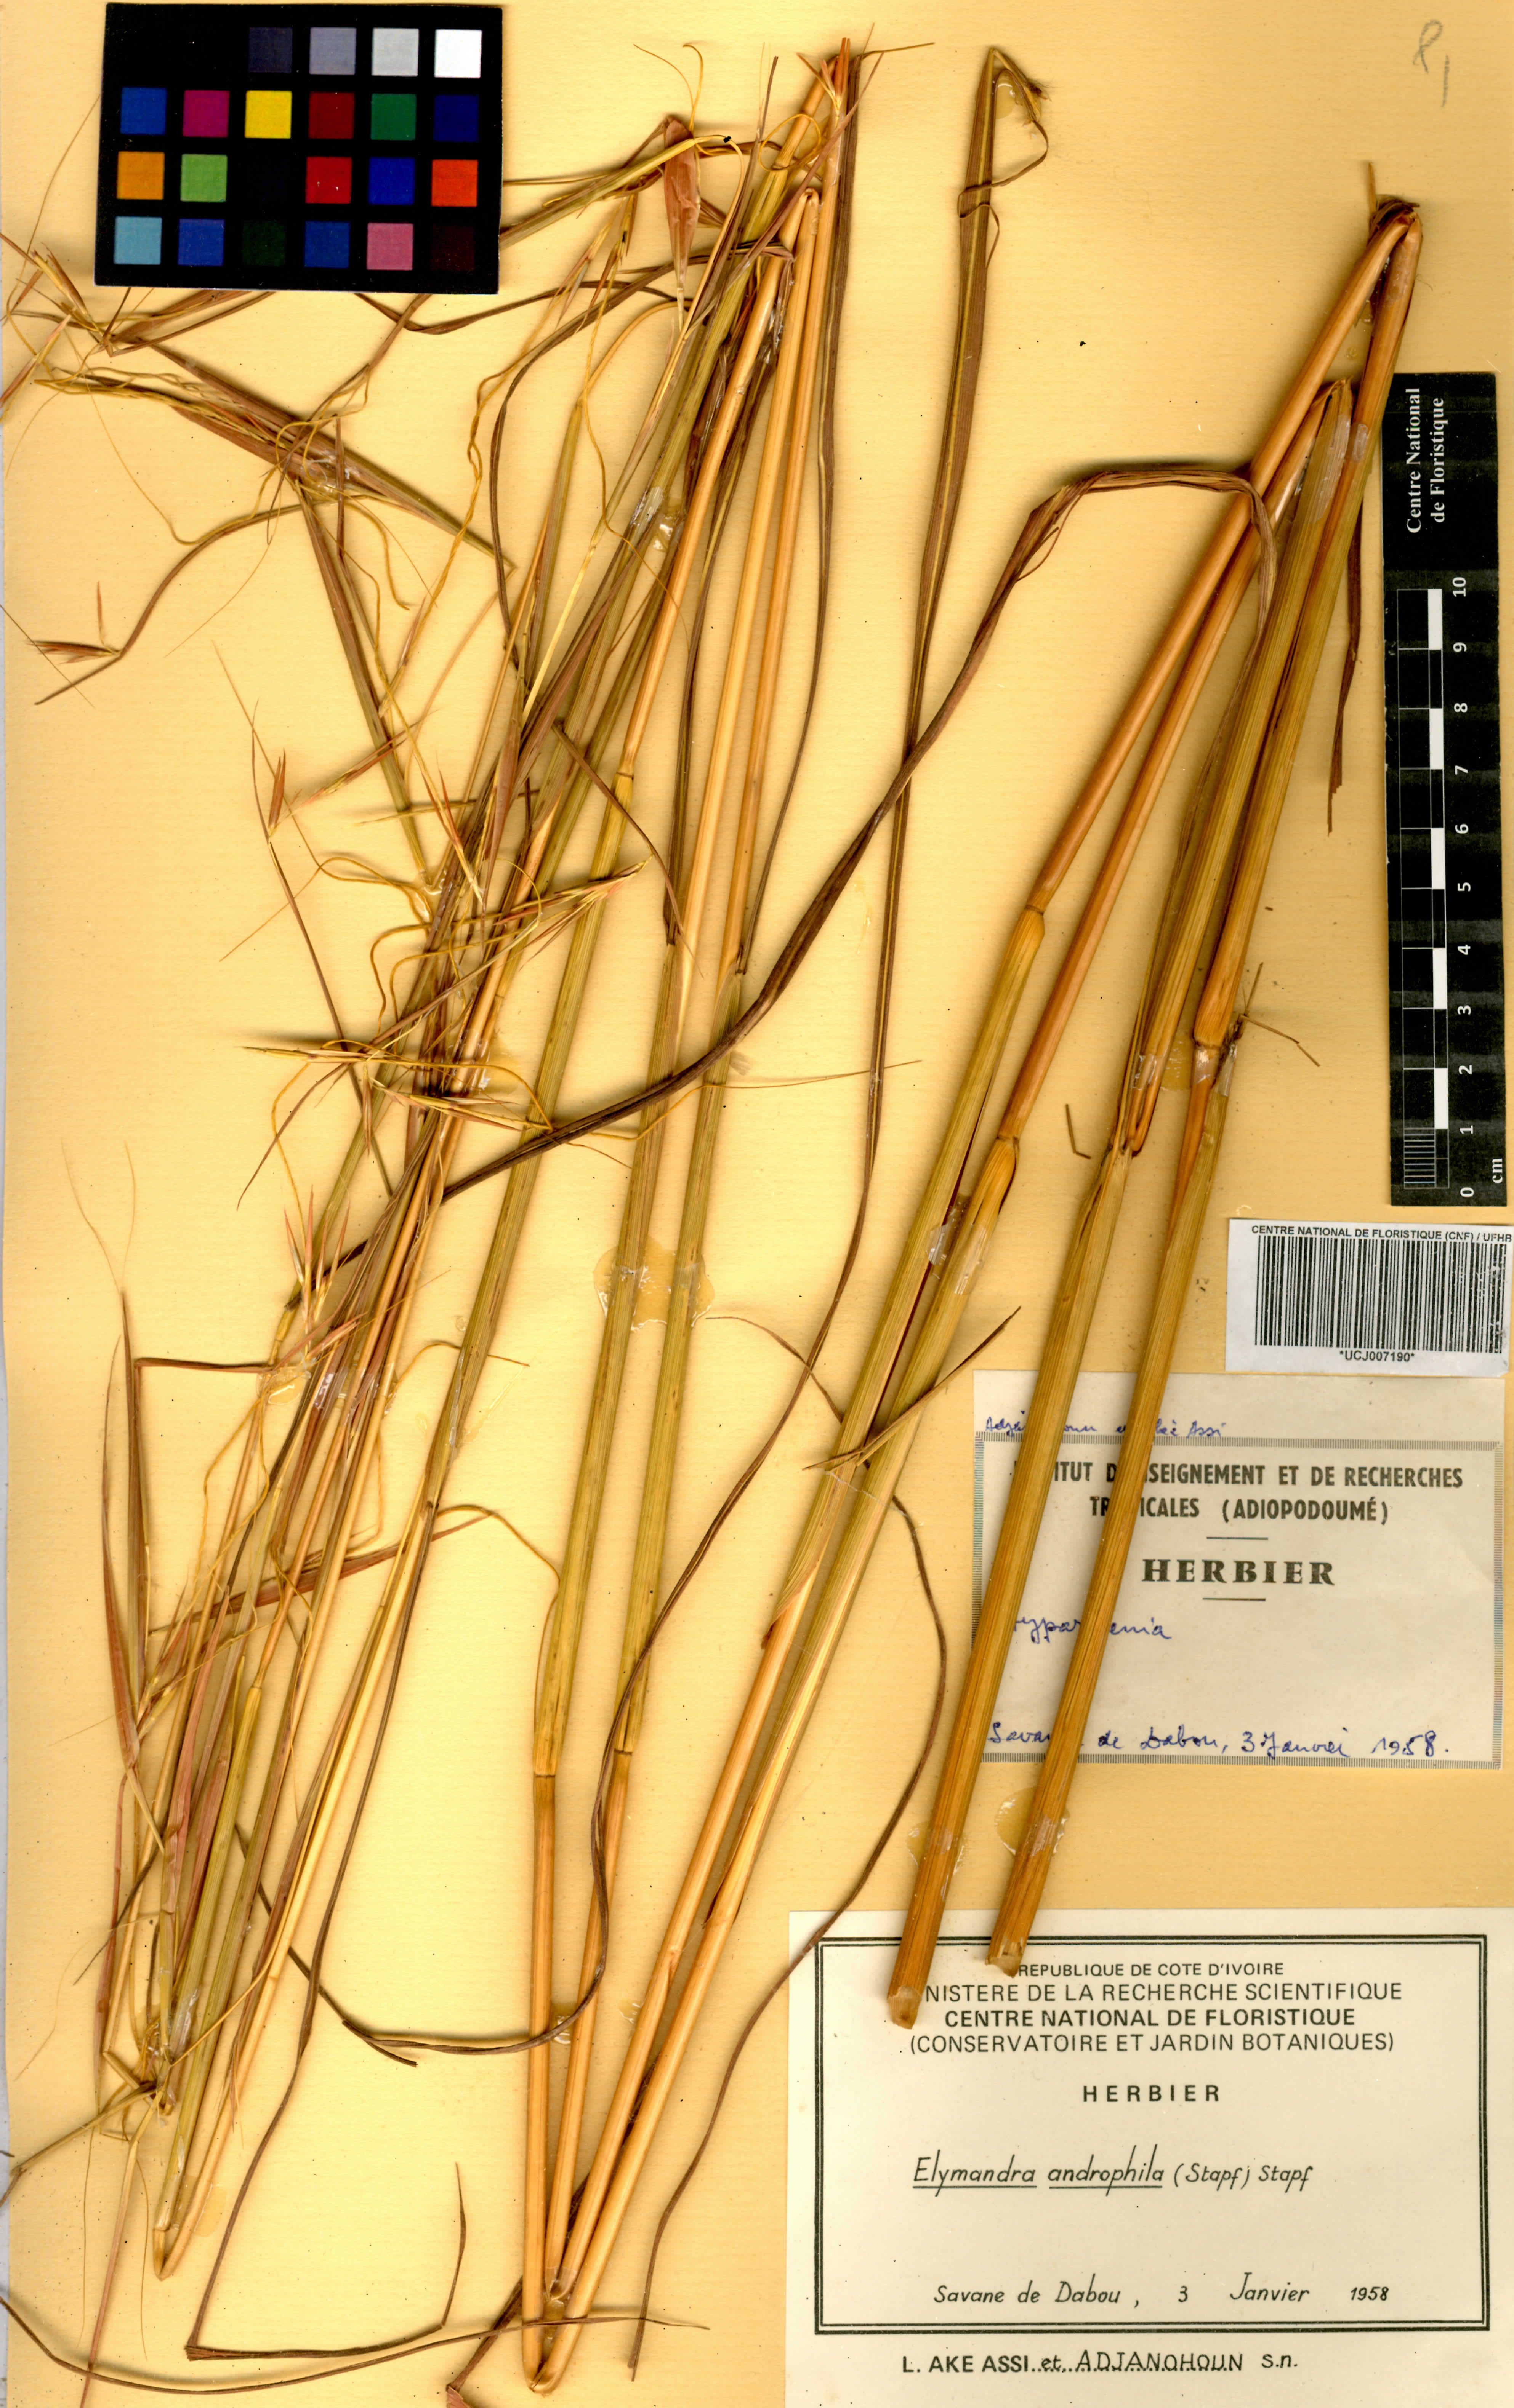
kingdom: Plantae
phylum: Tracheophyta
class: Liliopsida
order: Poales
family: Poaceae
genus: Elymandra
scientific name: Elymandra androphila
